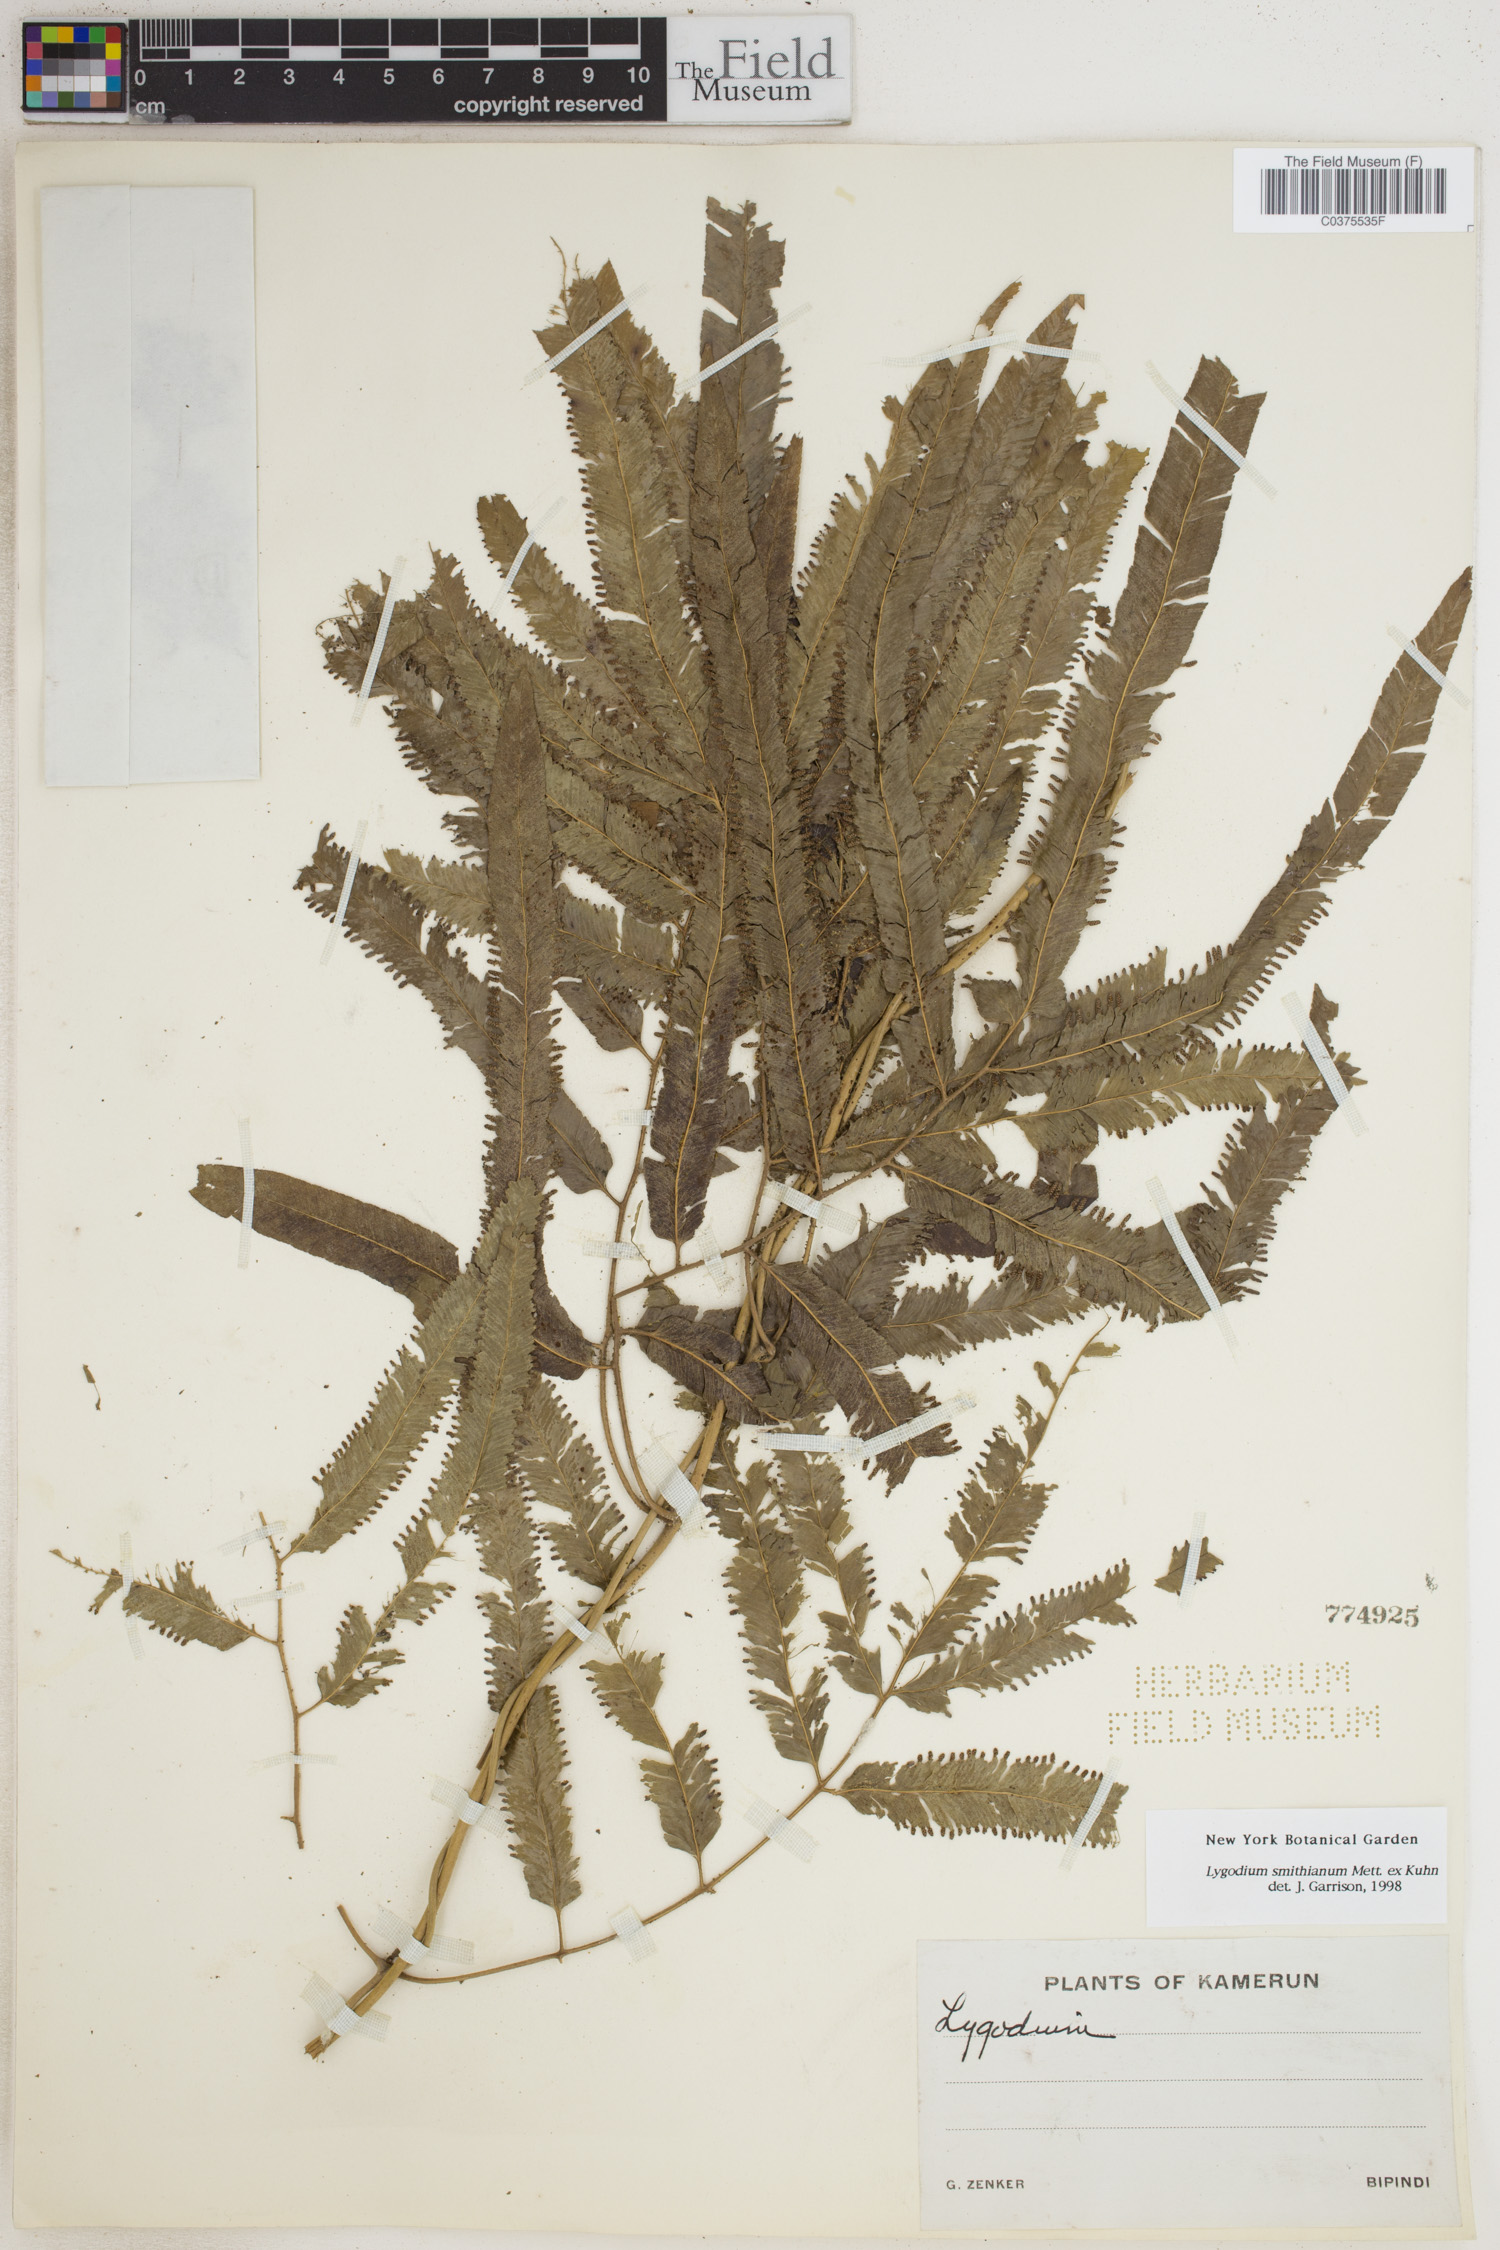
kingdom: Plantae
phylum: Tracheophyta
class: Polypodiopsida
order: Schizaeales
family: Lygodiaceae
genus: Lygodium
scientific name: Lygodium smithianum
